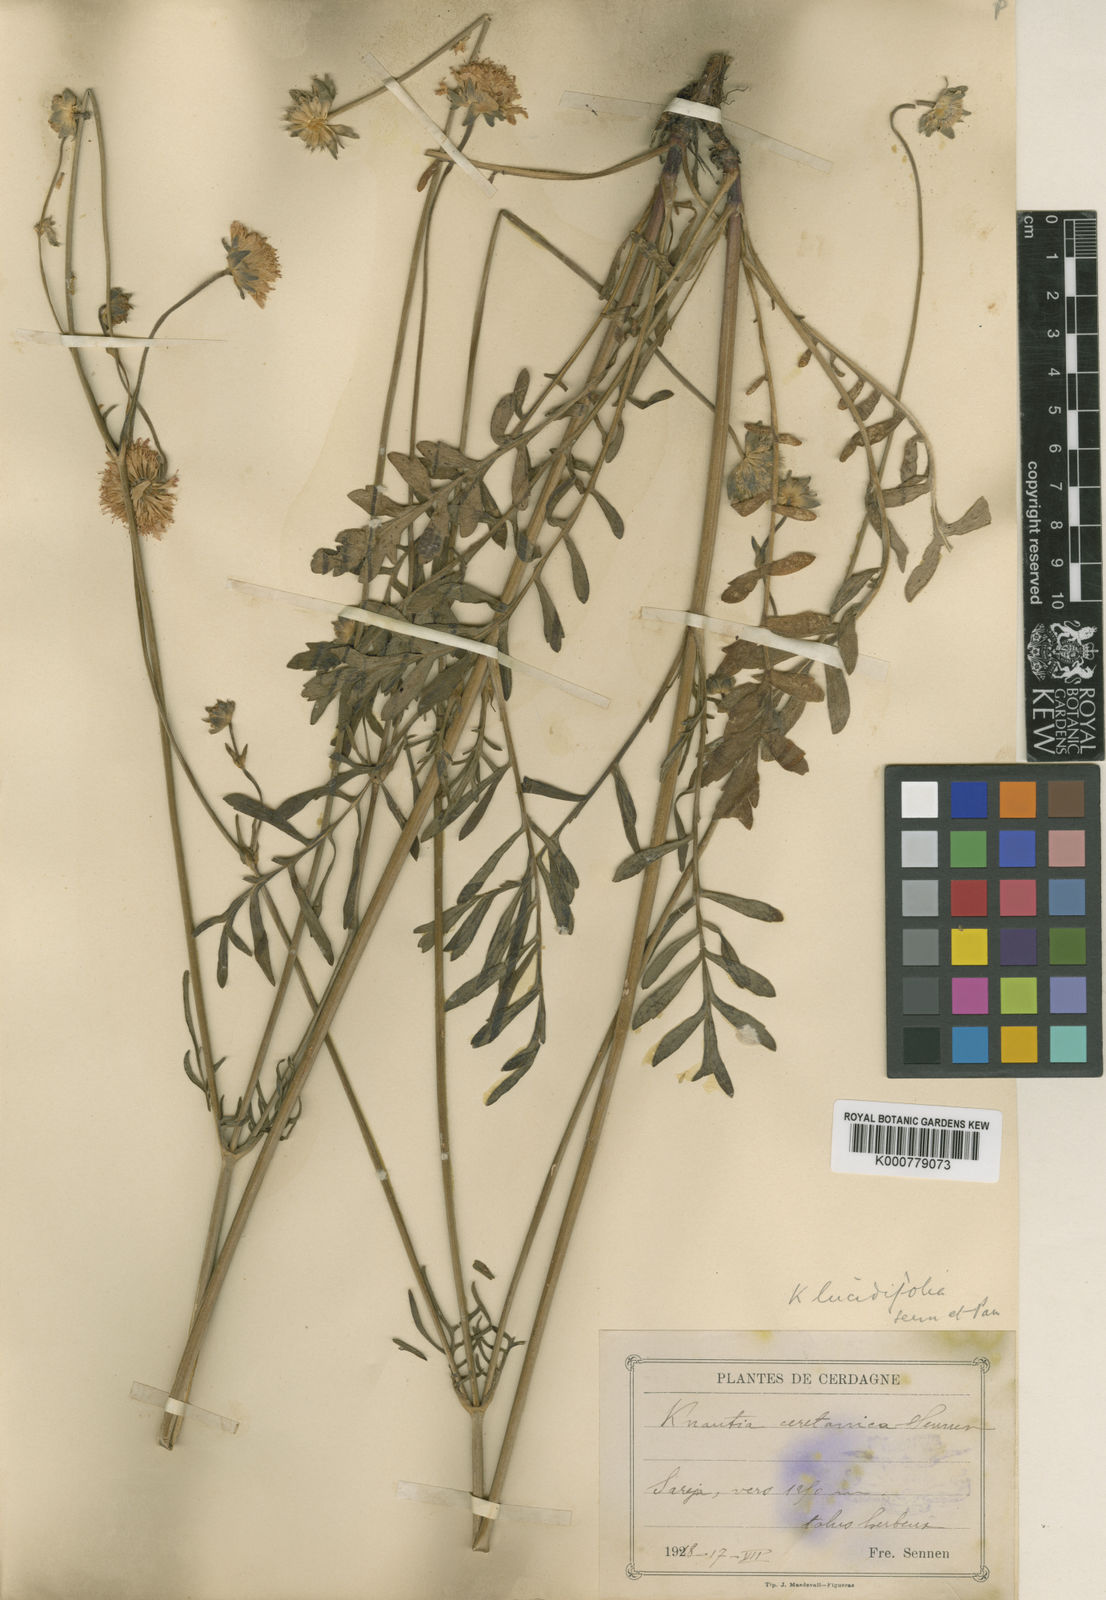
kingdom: Plantae
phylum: Tracheophyta
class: Magnoliopsida
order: Dipsacales
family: Caprifoliaceae
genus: Knautia
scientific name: Knautia
